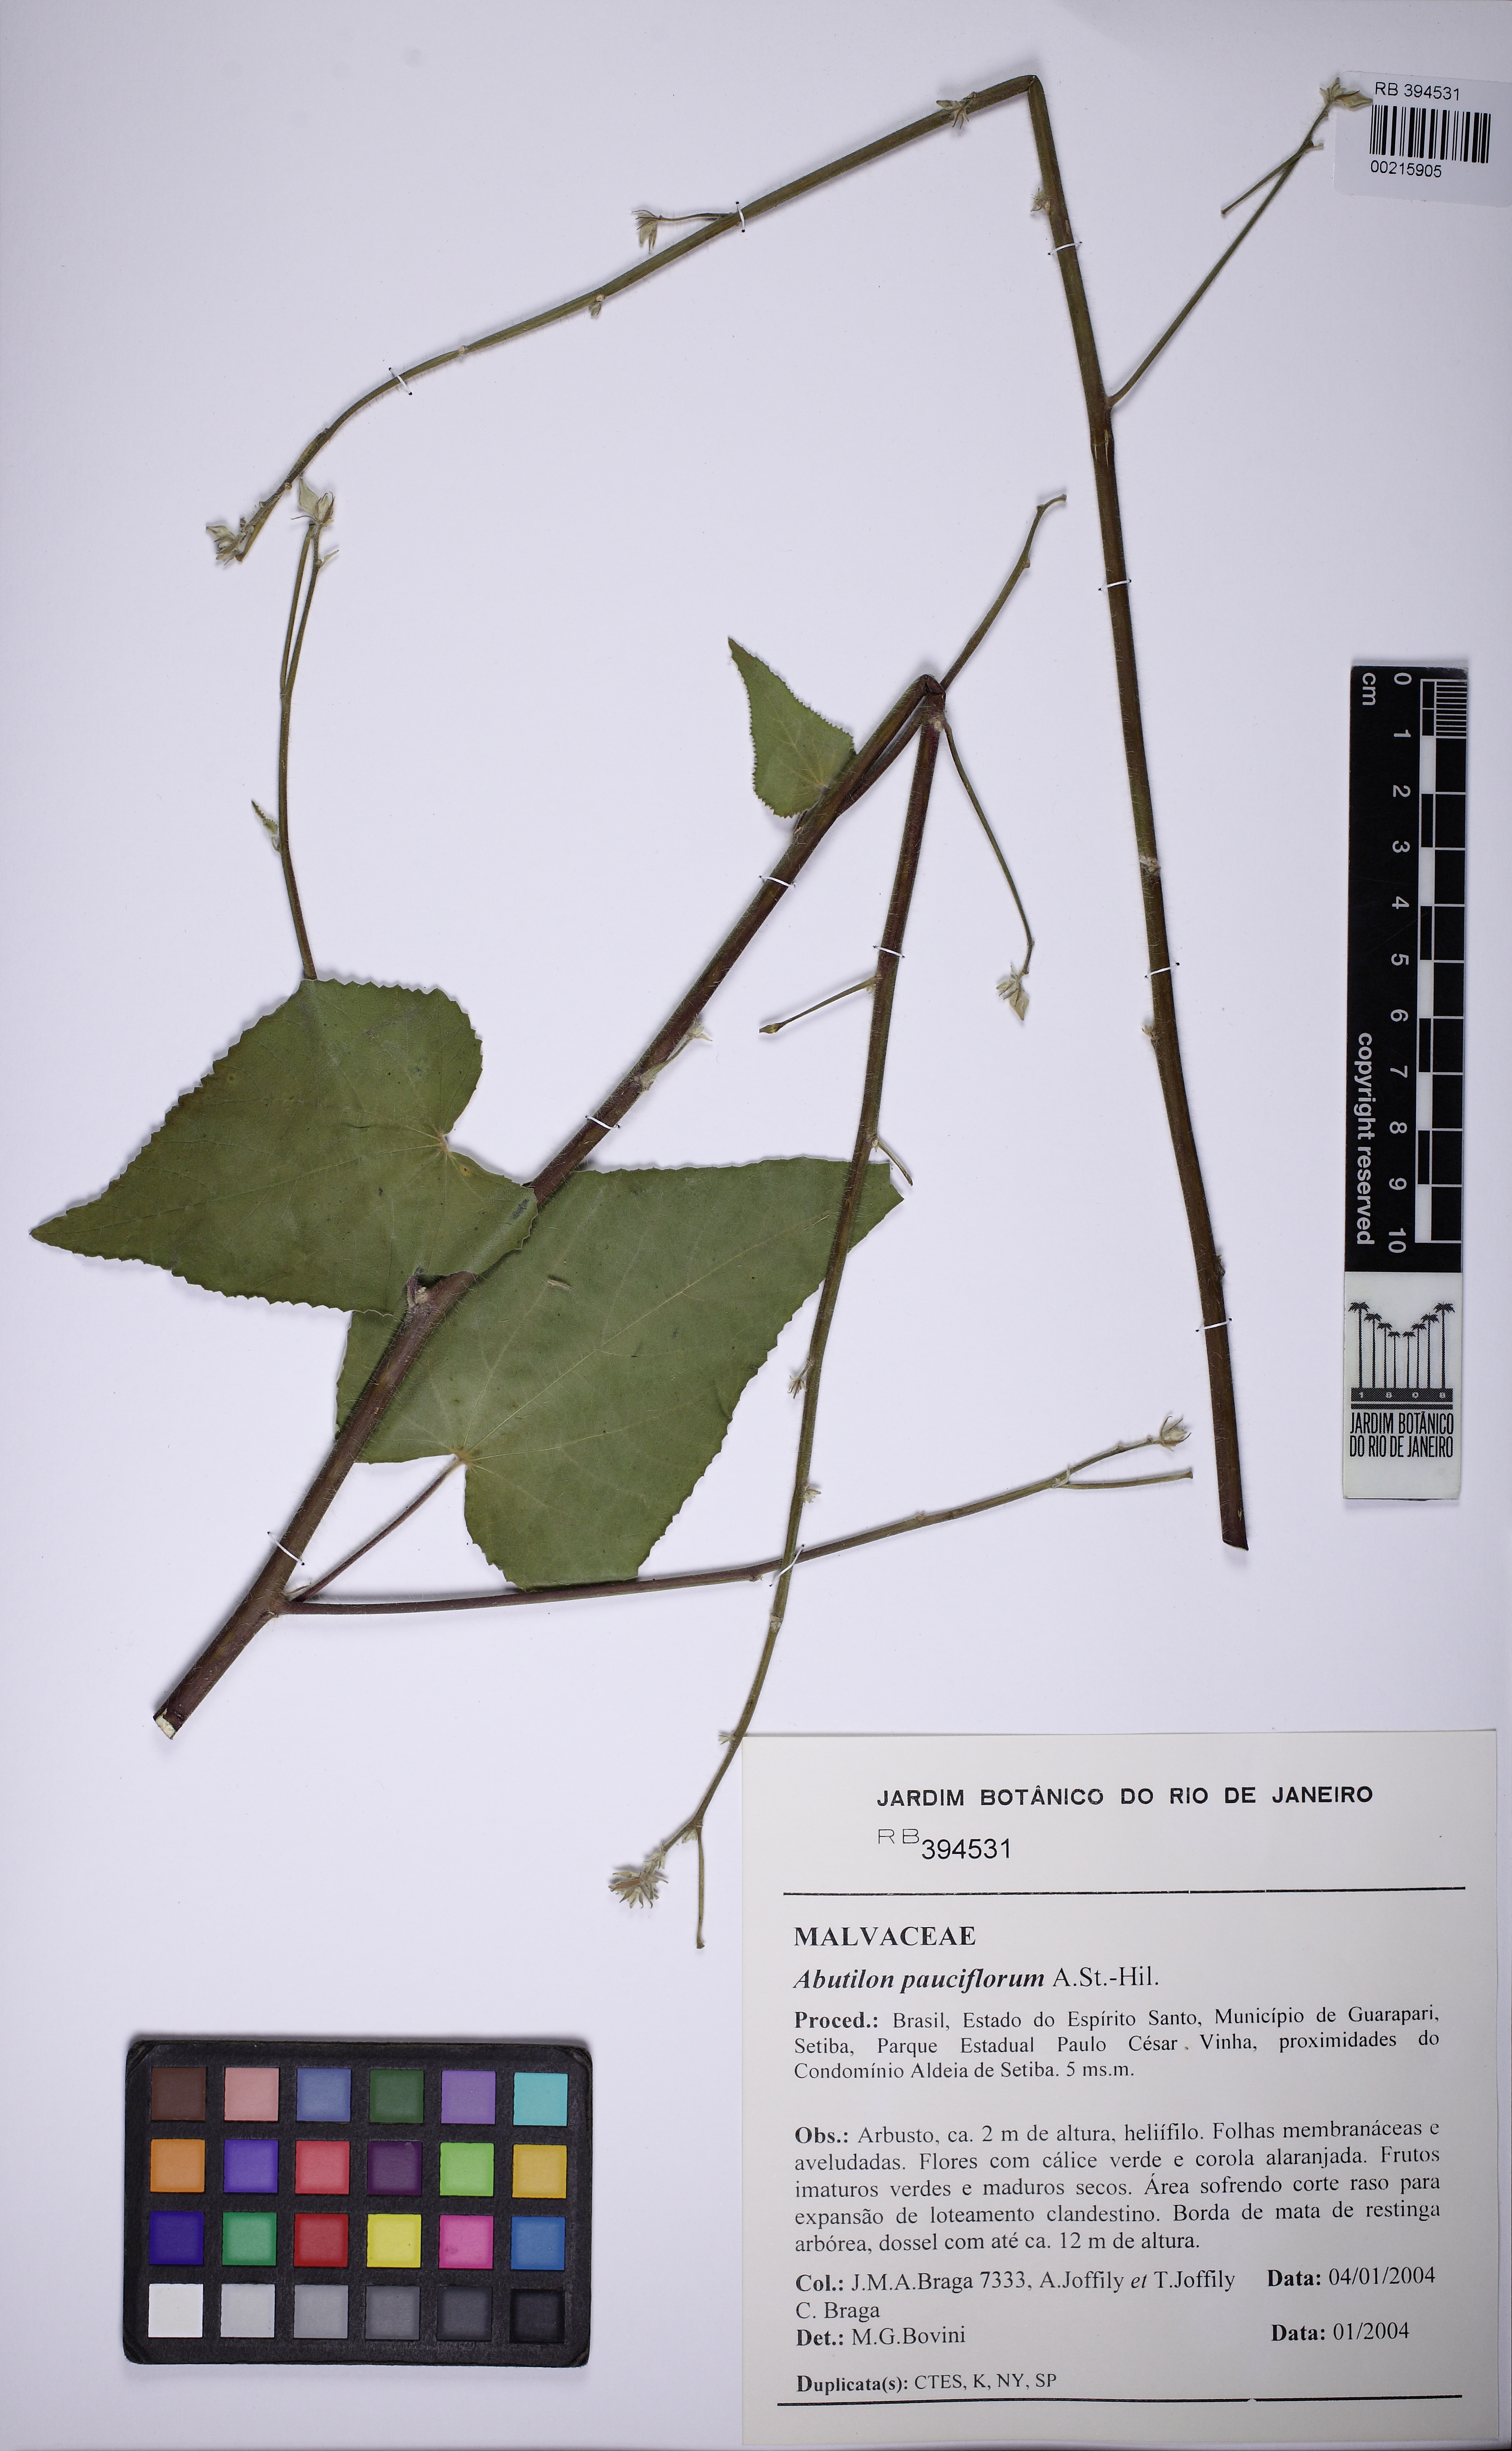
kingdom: Plantae
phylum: Tracheophyta
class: Magnoliopsida
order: Malvales
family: Malvaceae
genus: Callianthe
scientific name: Callianthe pauciflora
